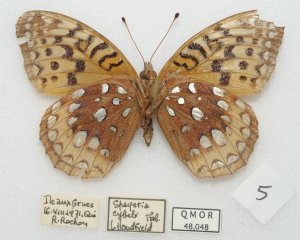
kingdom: Animalia
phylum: Arthropoda
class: Insecta
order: Lepidoptera
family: Nymphalidae
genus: Speyeria
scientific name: Speyeria cybele
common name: Great Spangled Fritillary
